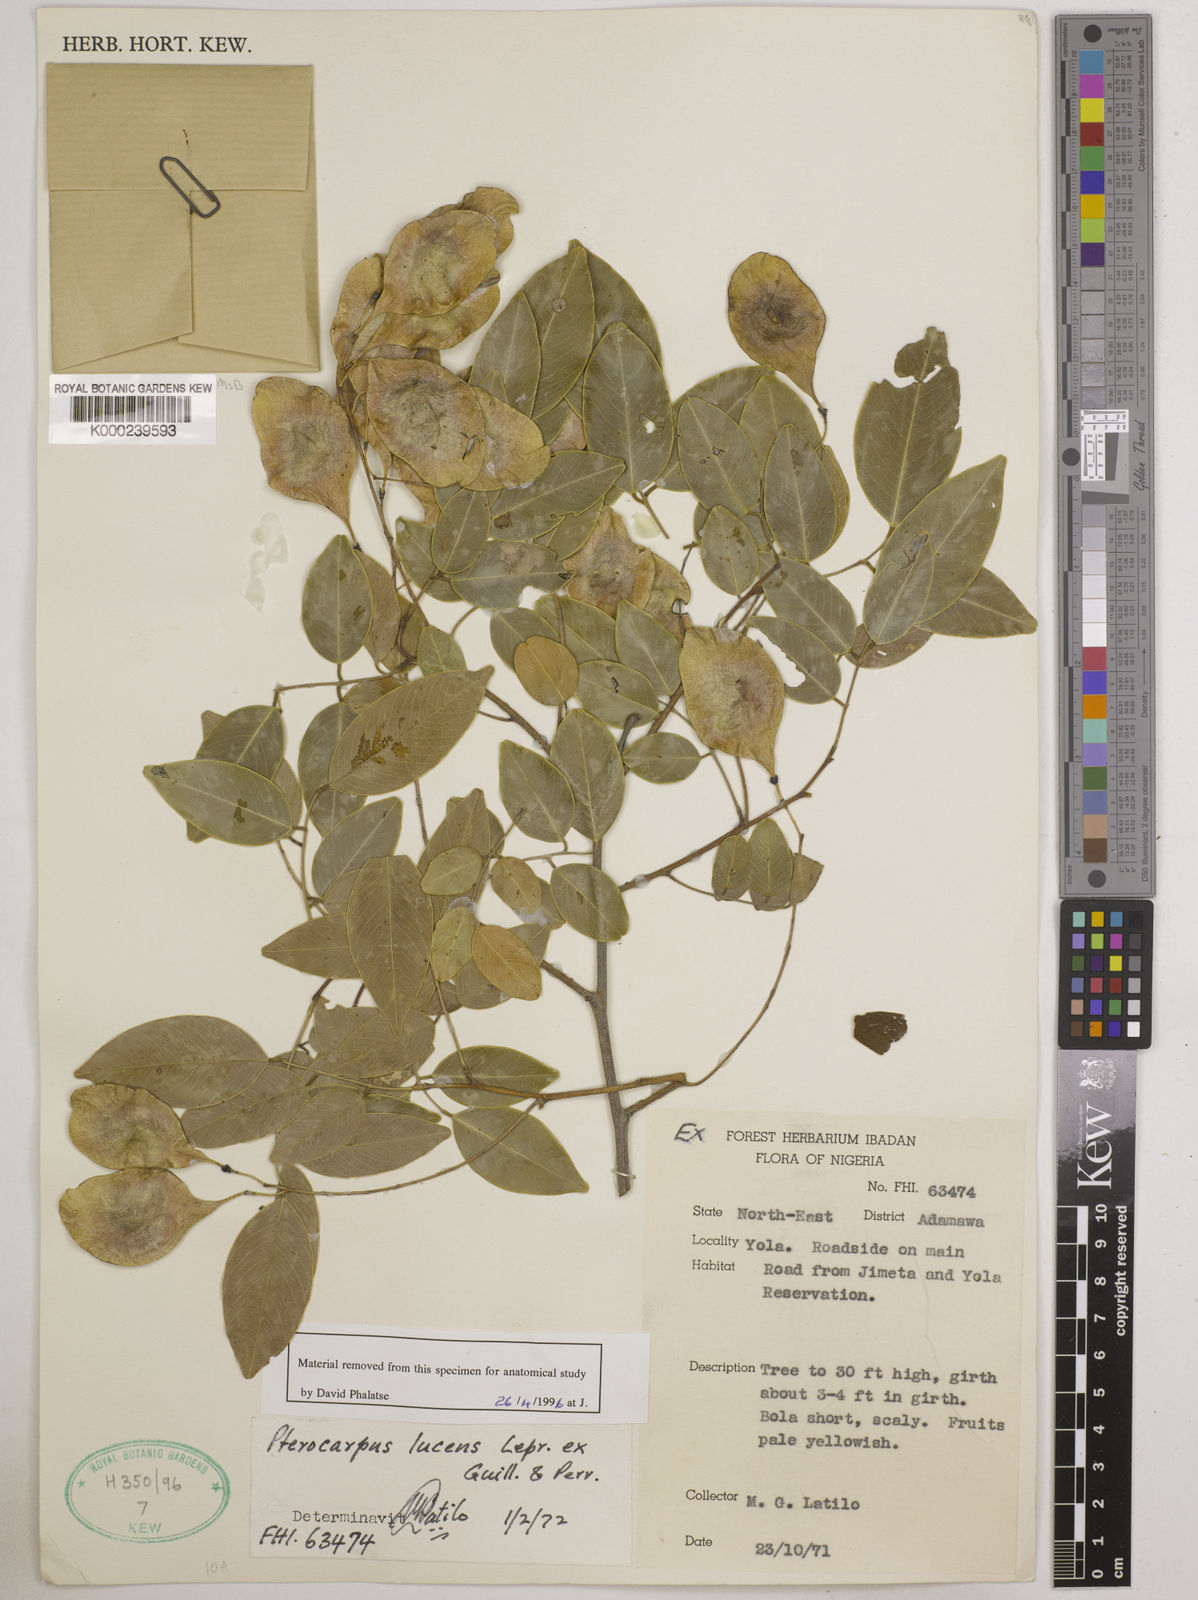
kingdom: Plantae
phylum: Tracheophyta
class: Magnoliopsida
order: Fabales
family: Fabaceae
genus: Pterocarpus
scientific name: Pterocarpus lucens
